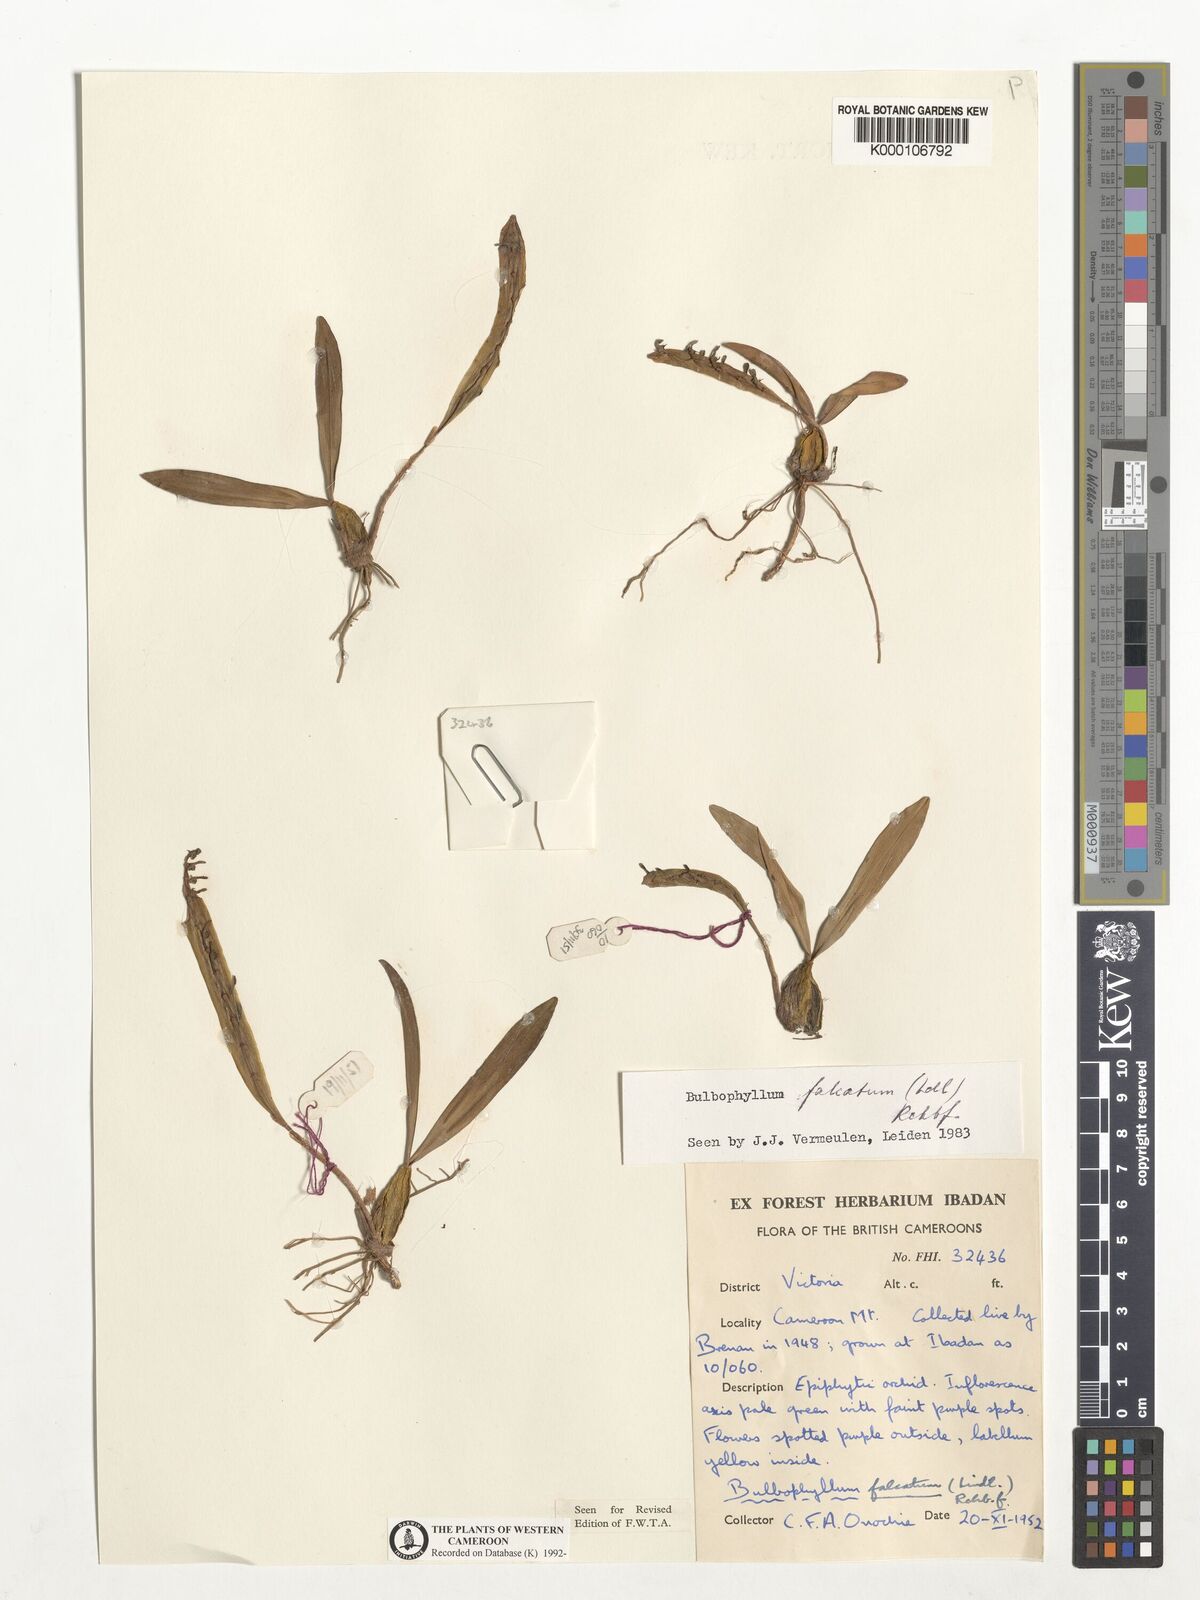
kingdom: Plantae
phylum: Tracheophyta
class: Liliopsida
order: Asparagales
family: Orchidaceae
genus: Bulbophyllum
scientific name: Bulbophyllum falcatum
